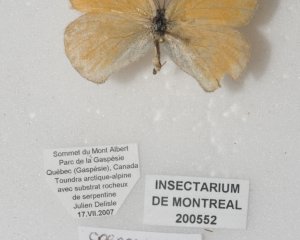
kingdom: Animalia
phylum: Arthropoda
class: Insecta
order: Lepidoptera
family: Nymphalidae
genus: Coenonympha
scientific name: Coenonympha tullia
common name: Large Heath
